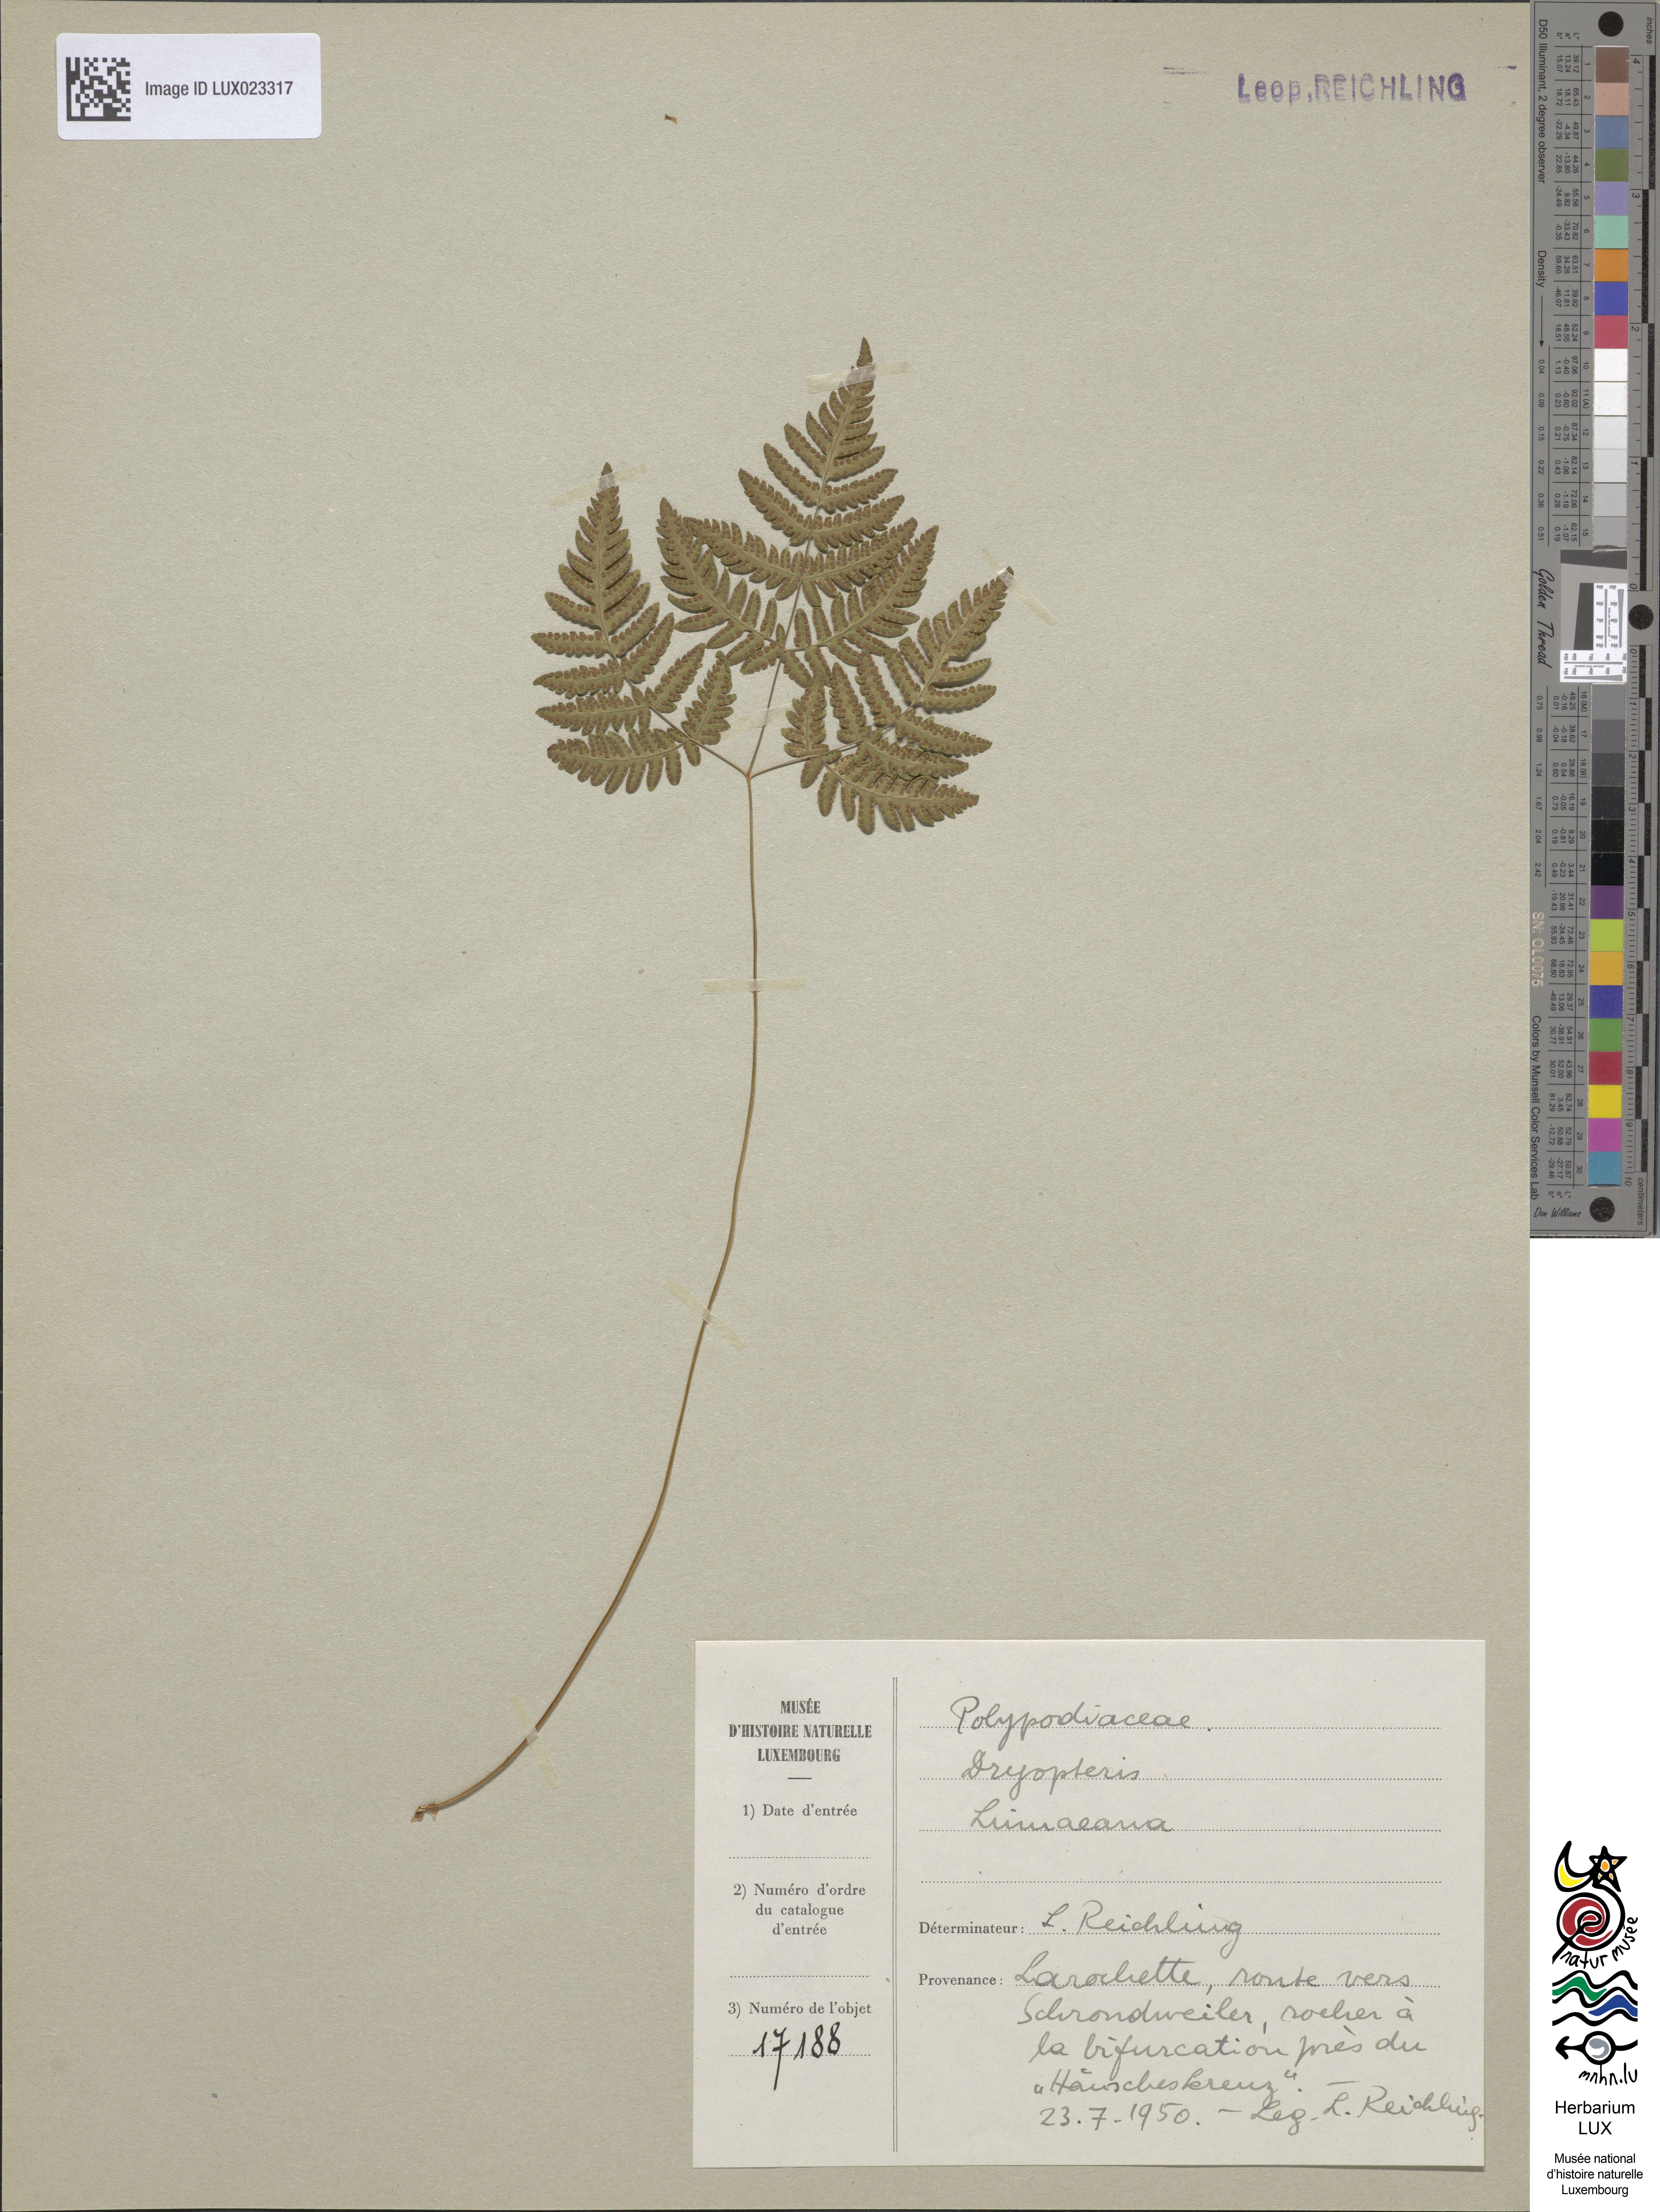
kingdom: Plantae
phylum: Tracheophyta
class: Polypodiopsida
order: Polypodiales
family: Cystopteridaceae
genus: Gymnocarpium
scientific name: Gymnocarpium dryopteris
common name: Oak fern
